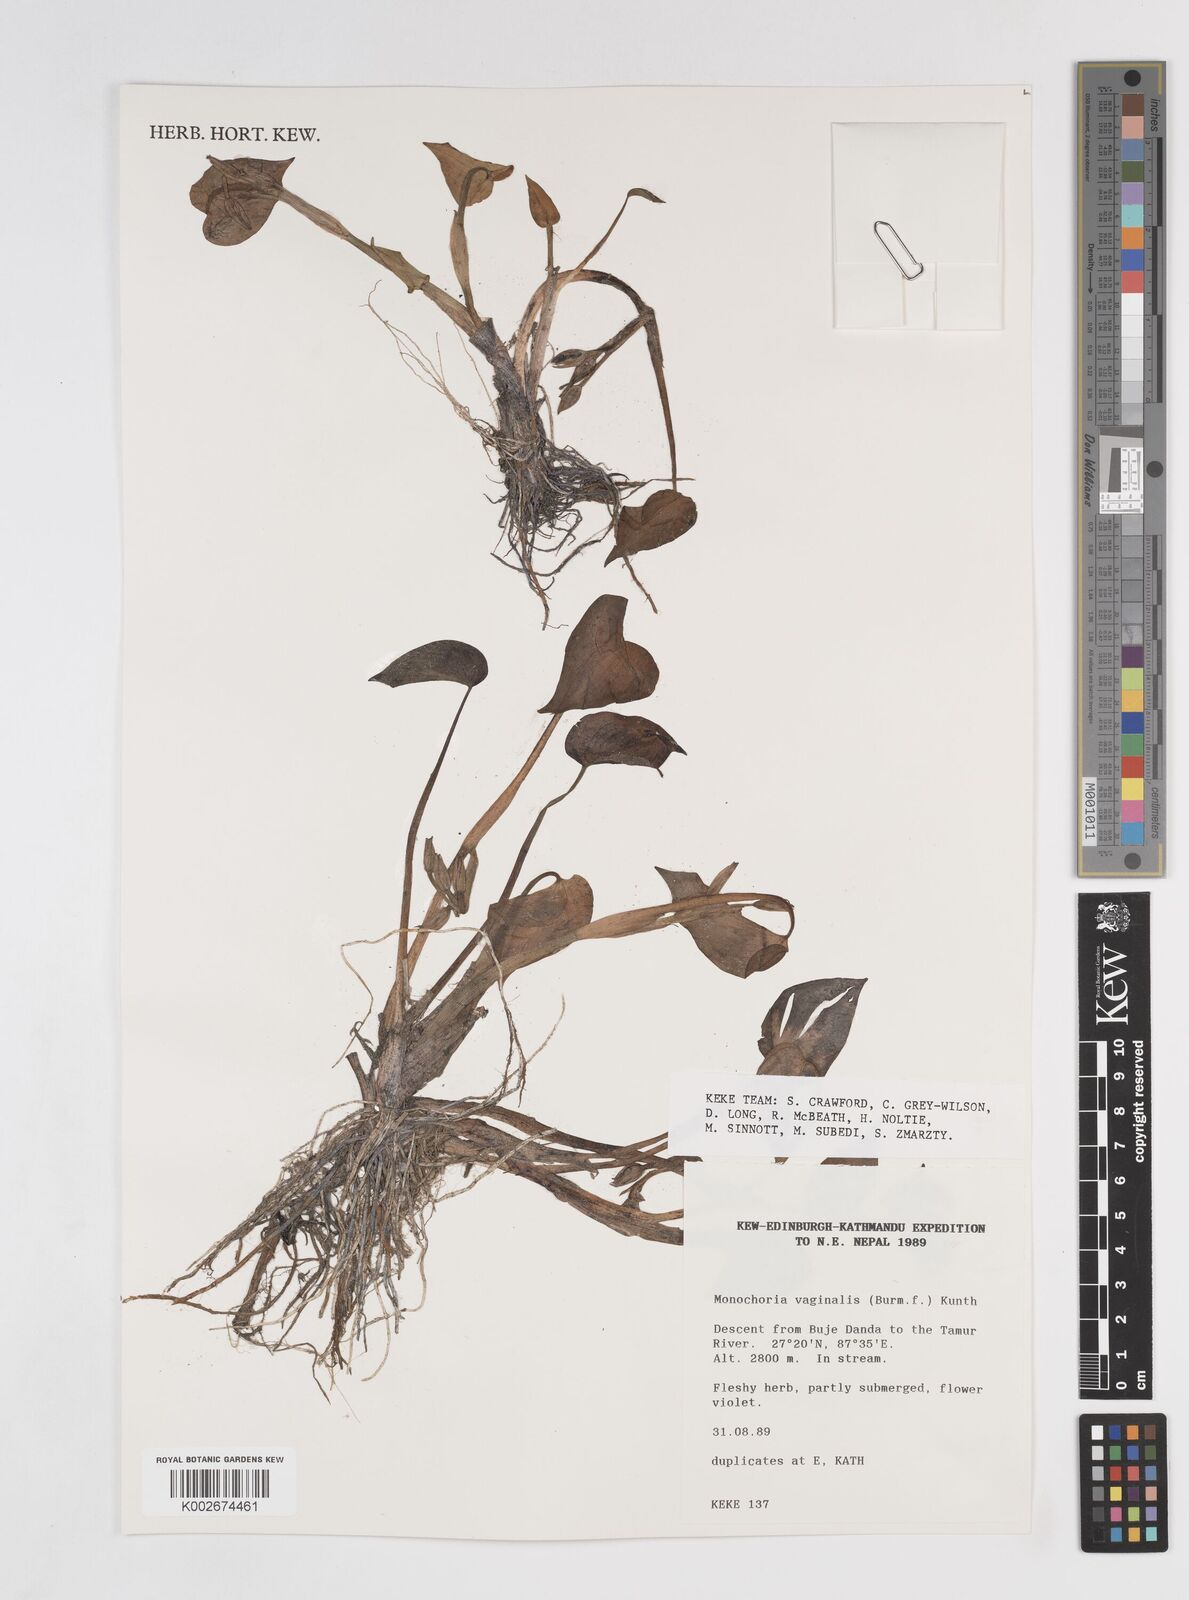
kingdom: Plantae
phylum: Tracheophyta
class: Liliopsida
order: Commelinales
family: Pontederiaceae
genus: Pontederia
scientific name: Pontederia vaginalis
